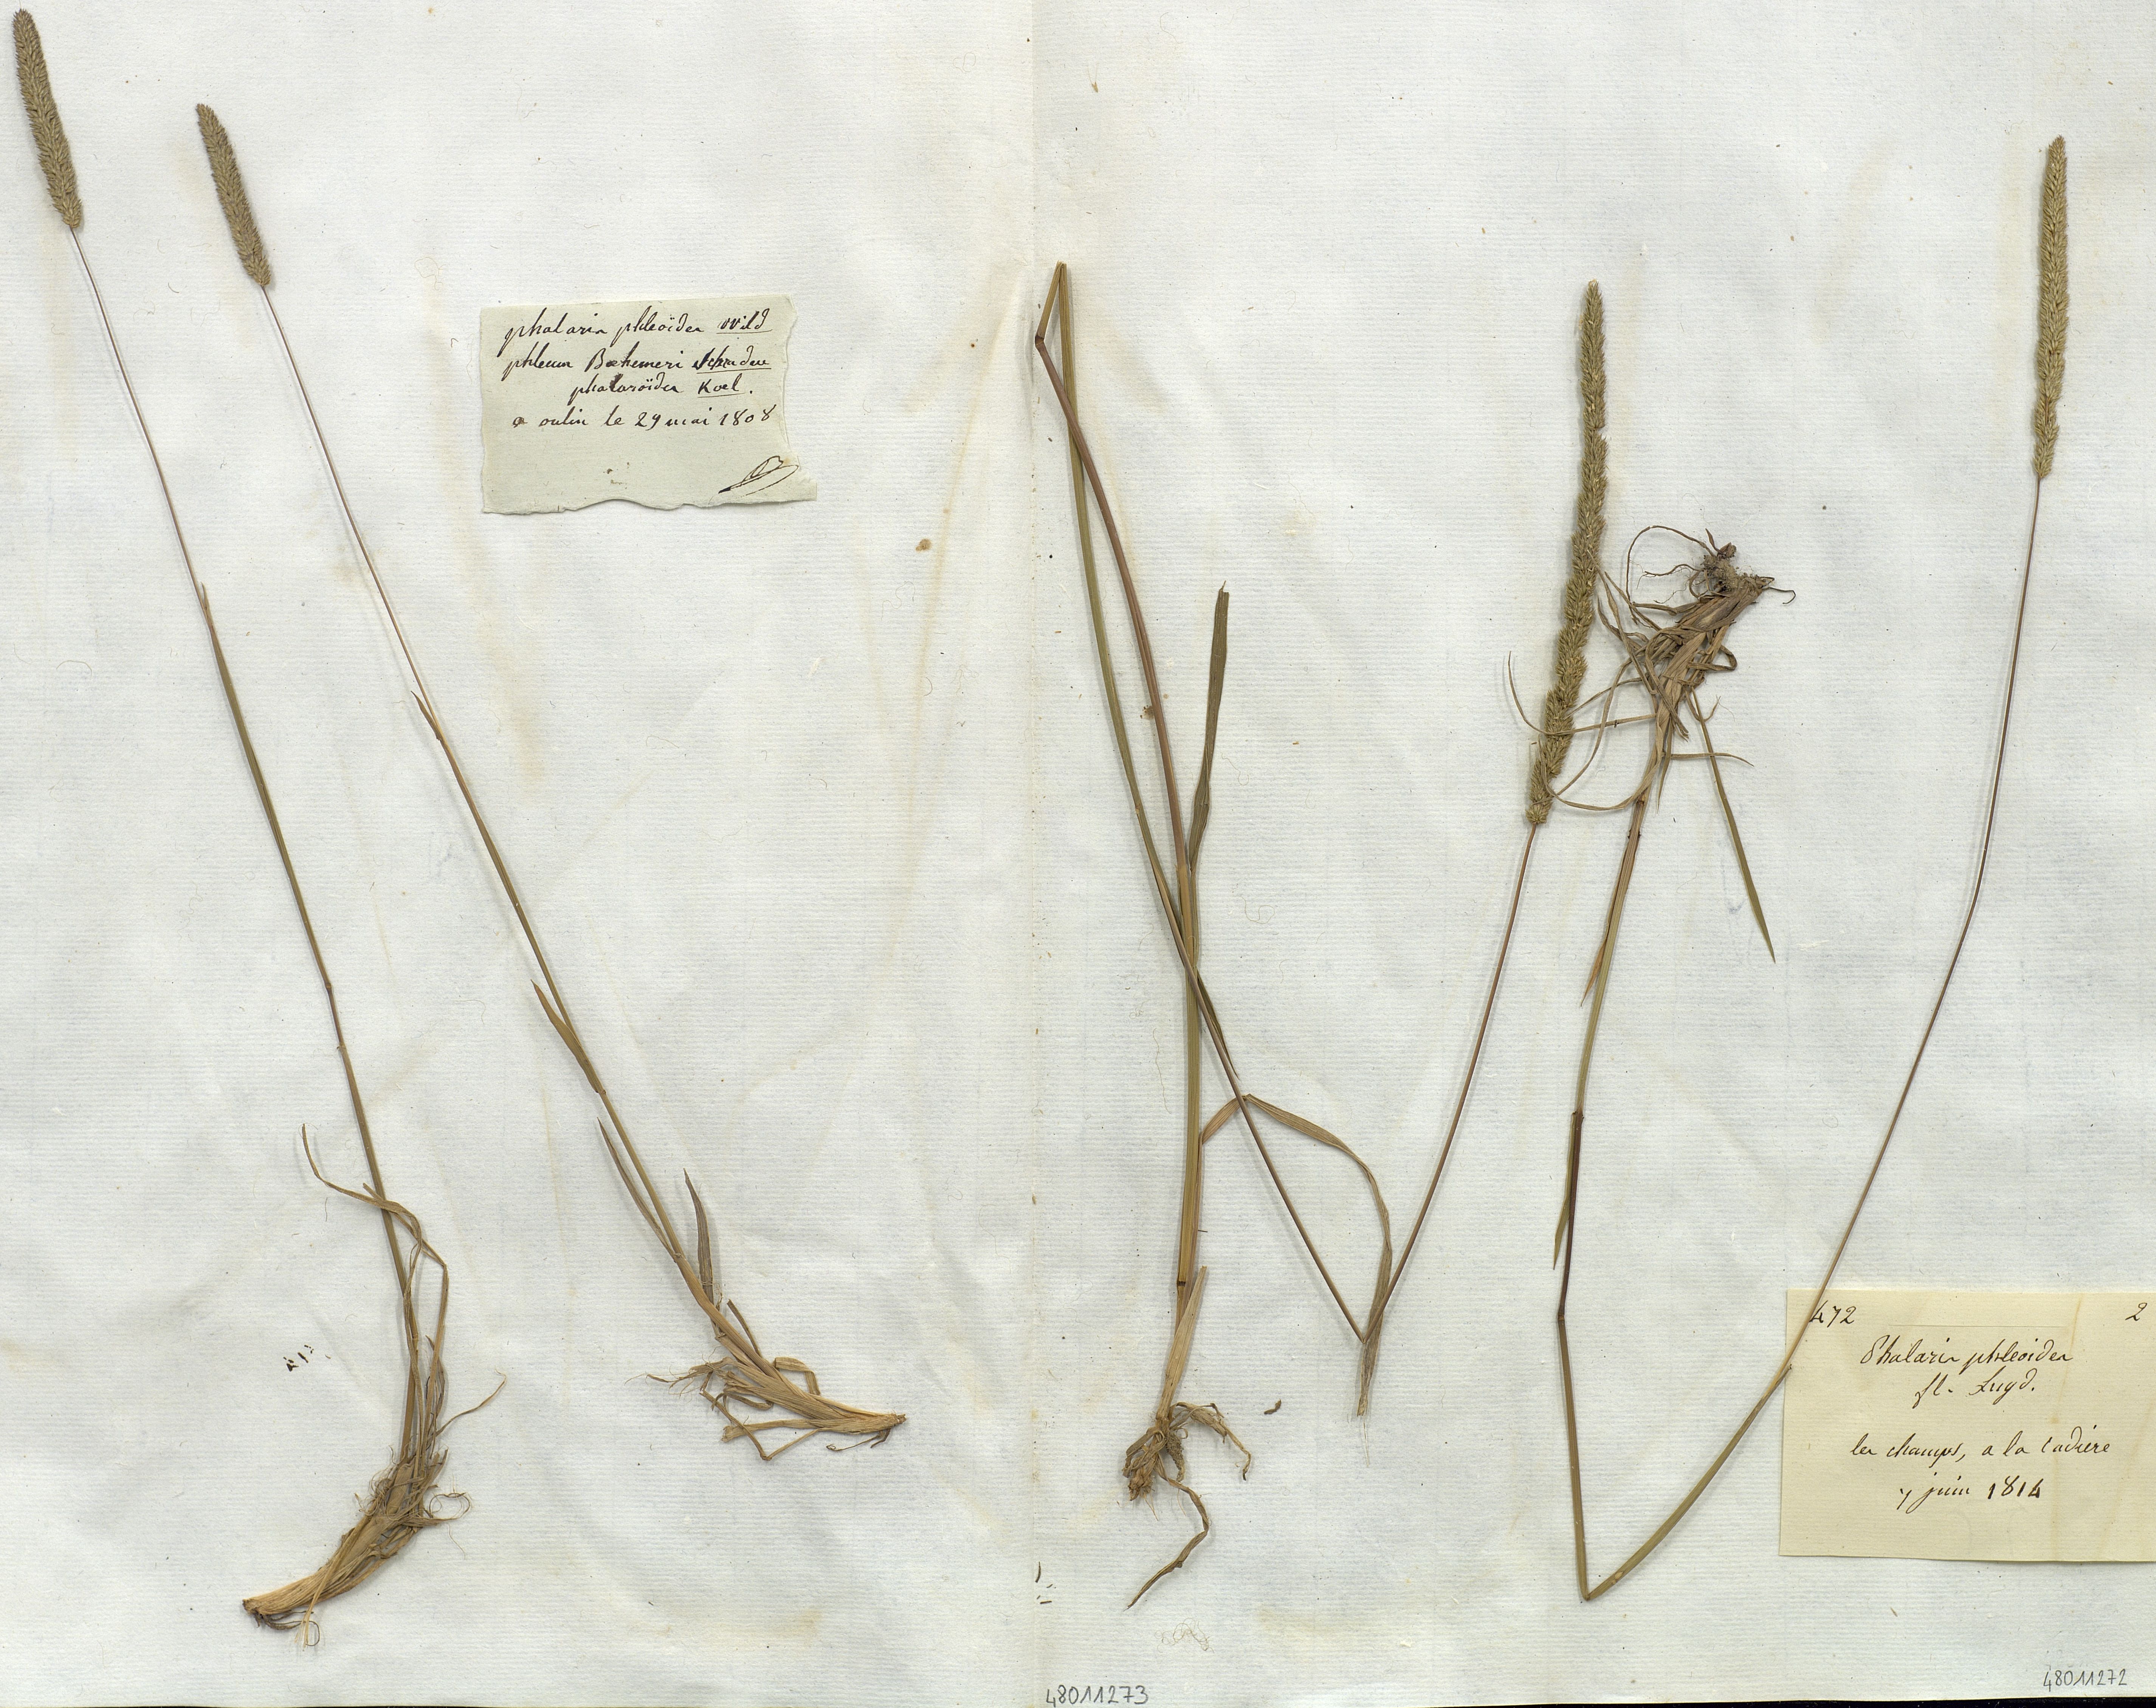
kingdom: Plantae
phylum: Tracheophyta
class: Liliopsida
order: Poales
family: Poaceae
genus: Phalaris
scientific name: Phalaris phleoides
